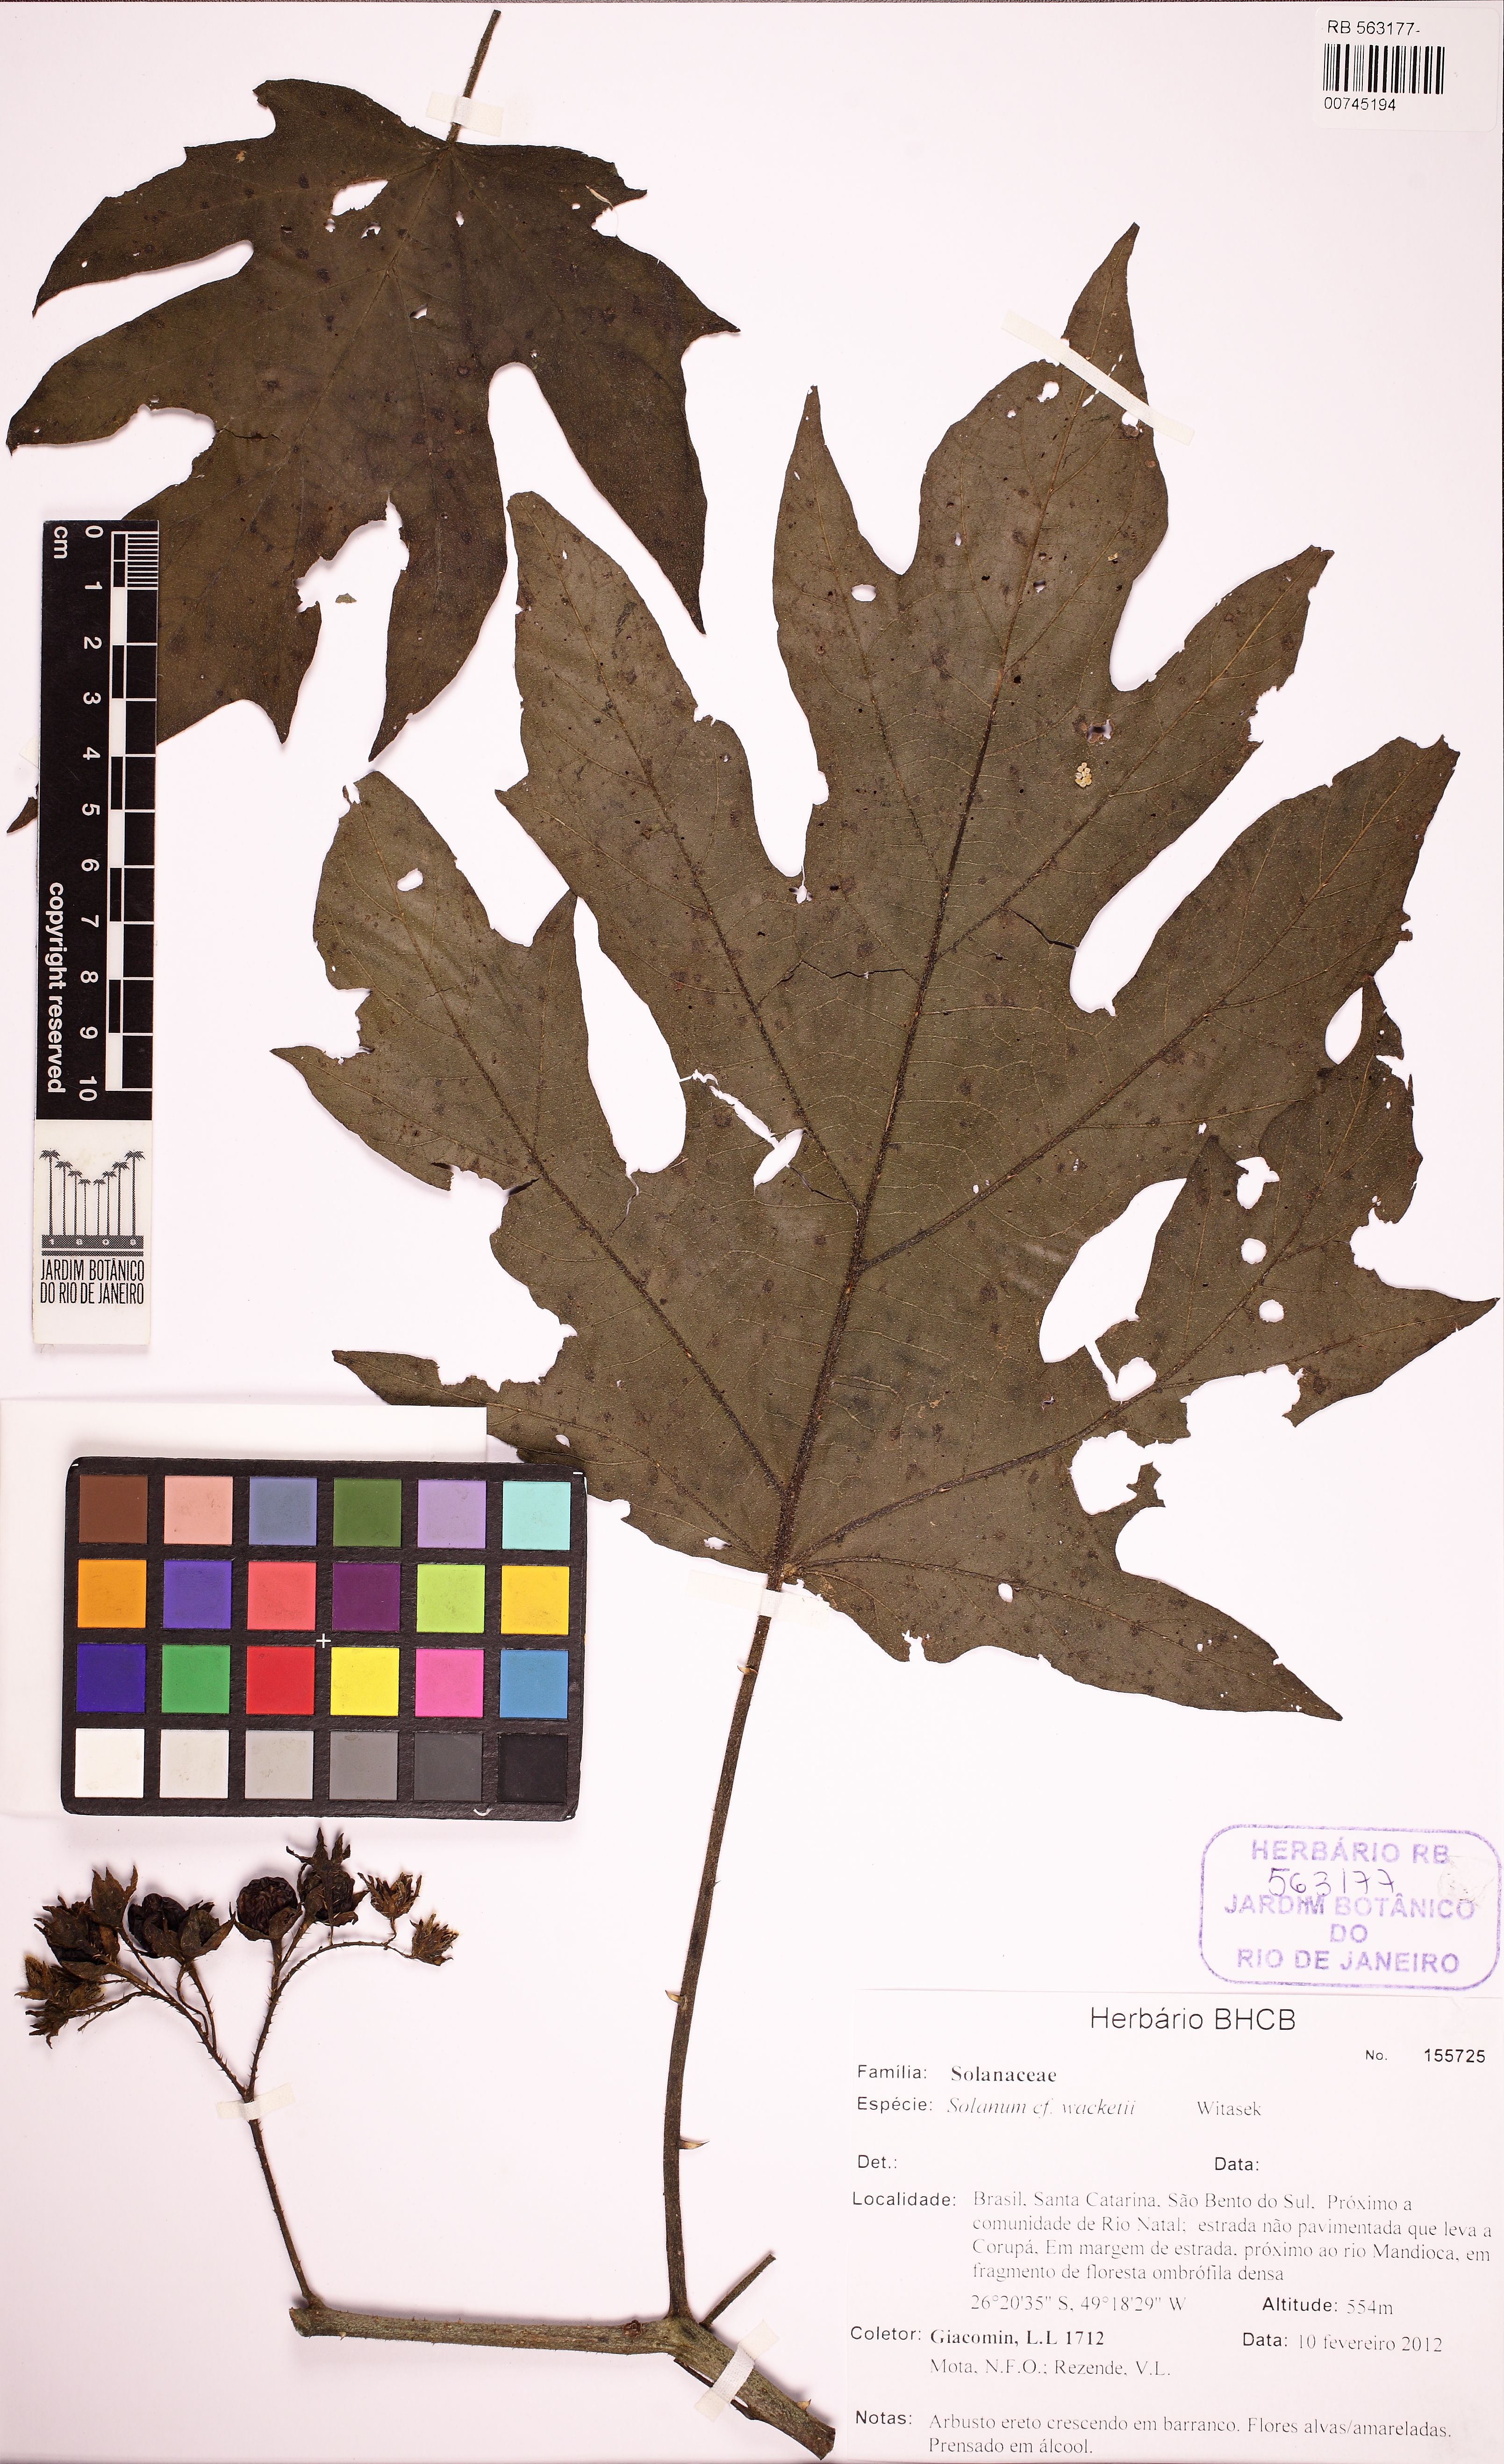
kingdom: Plantae
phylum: Tracheophyta
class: Magnoliopsida
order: Solanales
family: Solanaceae
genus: Solanum
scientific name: Solanum wacketii
